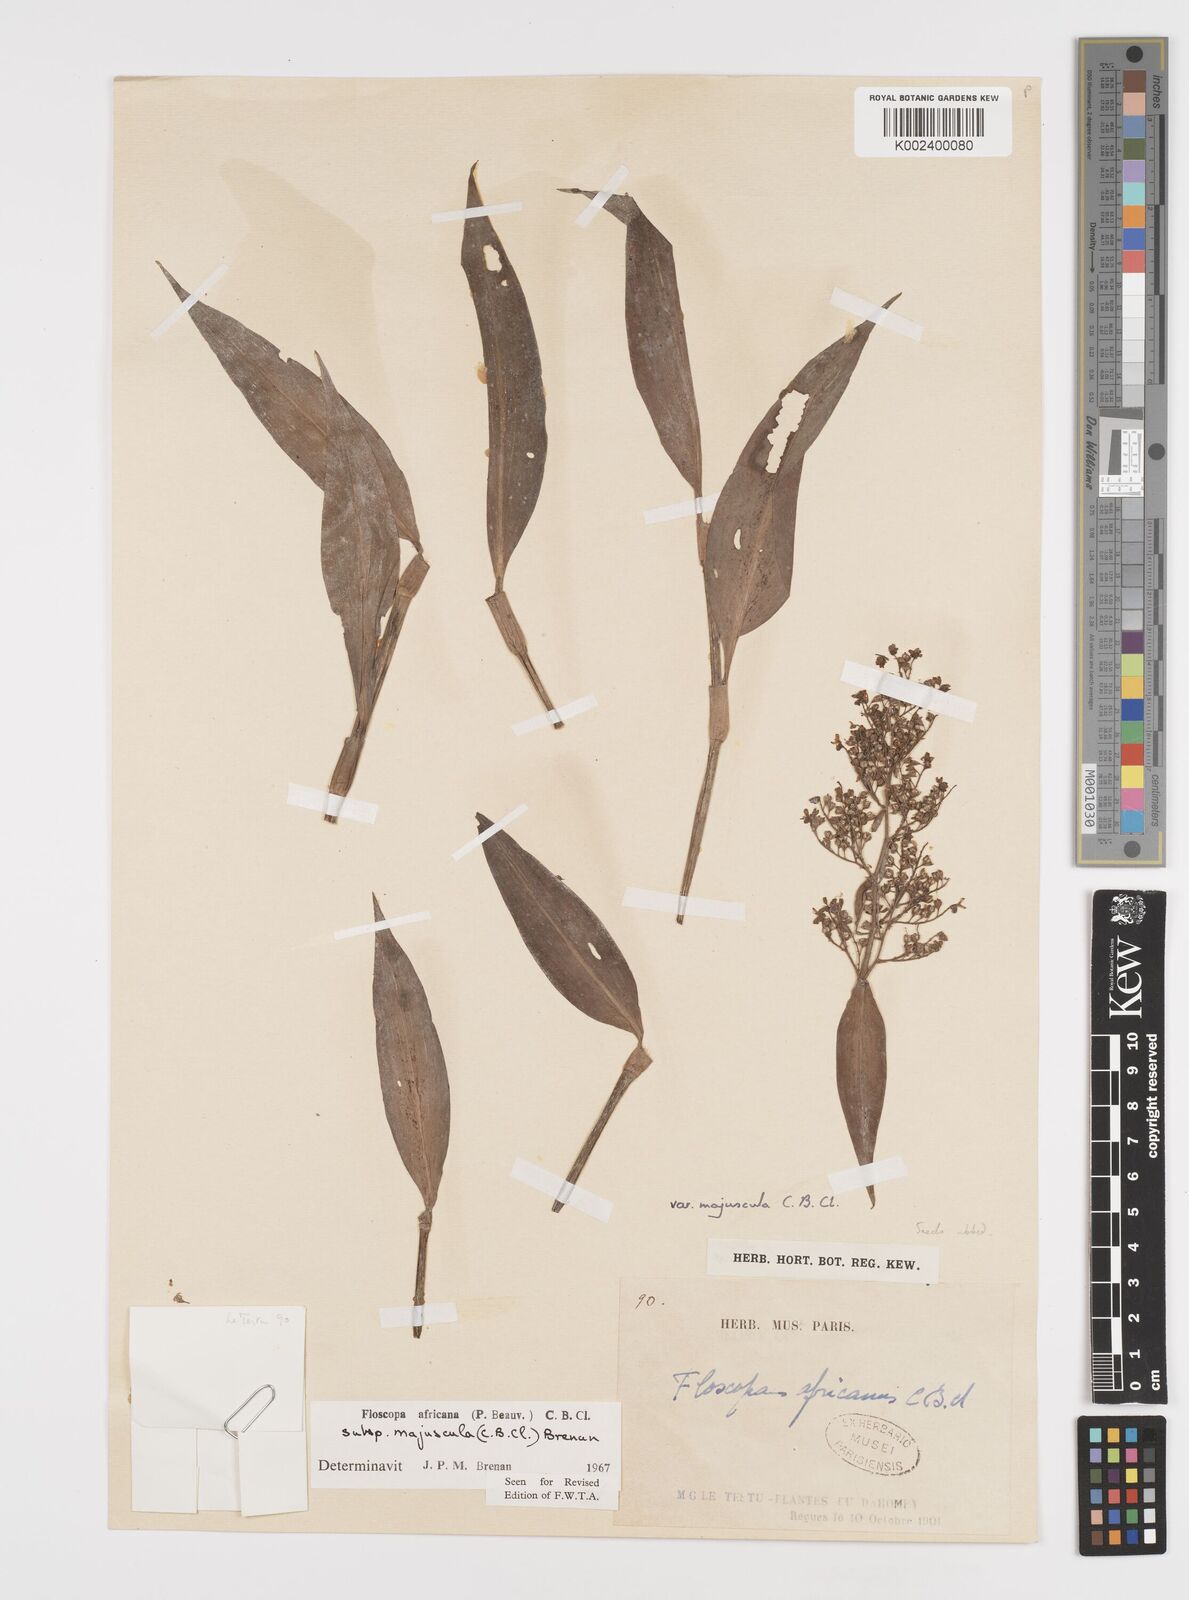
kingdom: Plantae
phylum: Tracheophyta
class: Liliopsida
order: Commelinales
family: Commelinaceae
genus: Floscopa
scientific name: Floscopa africana
